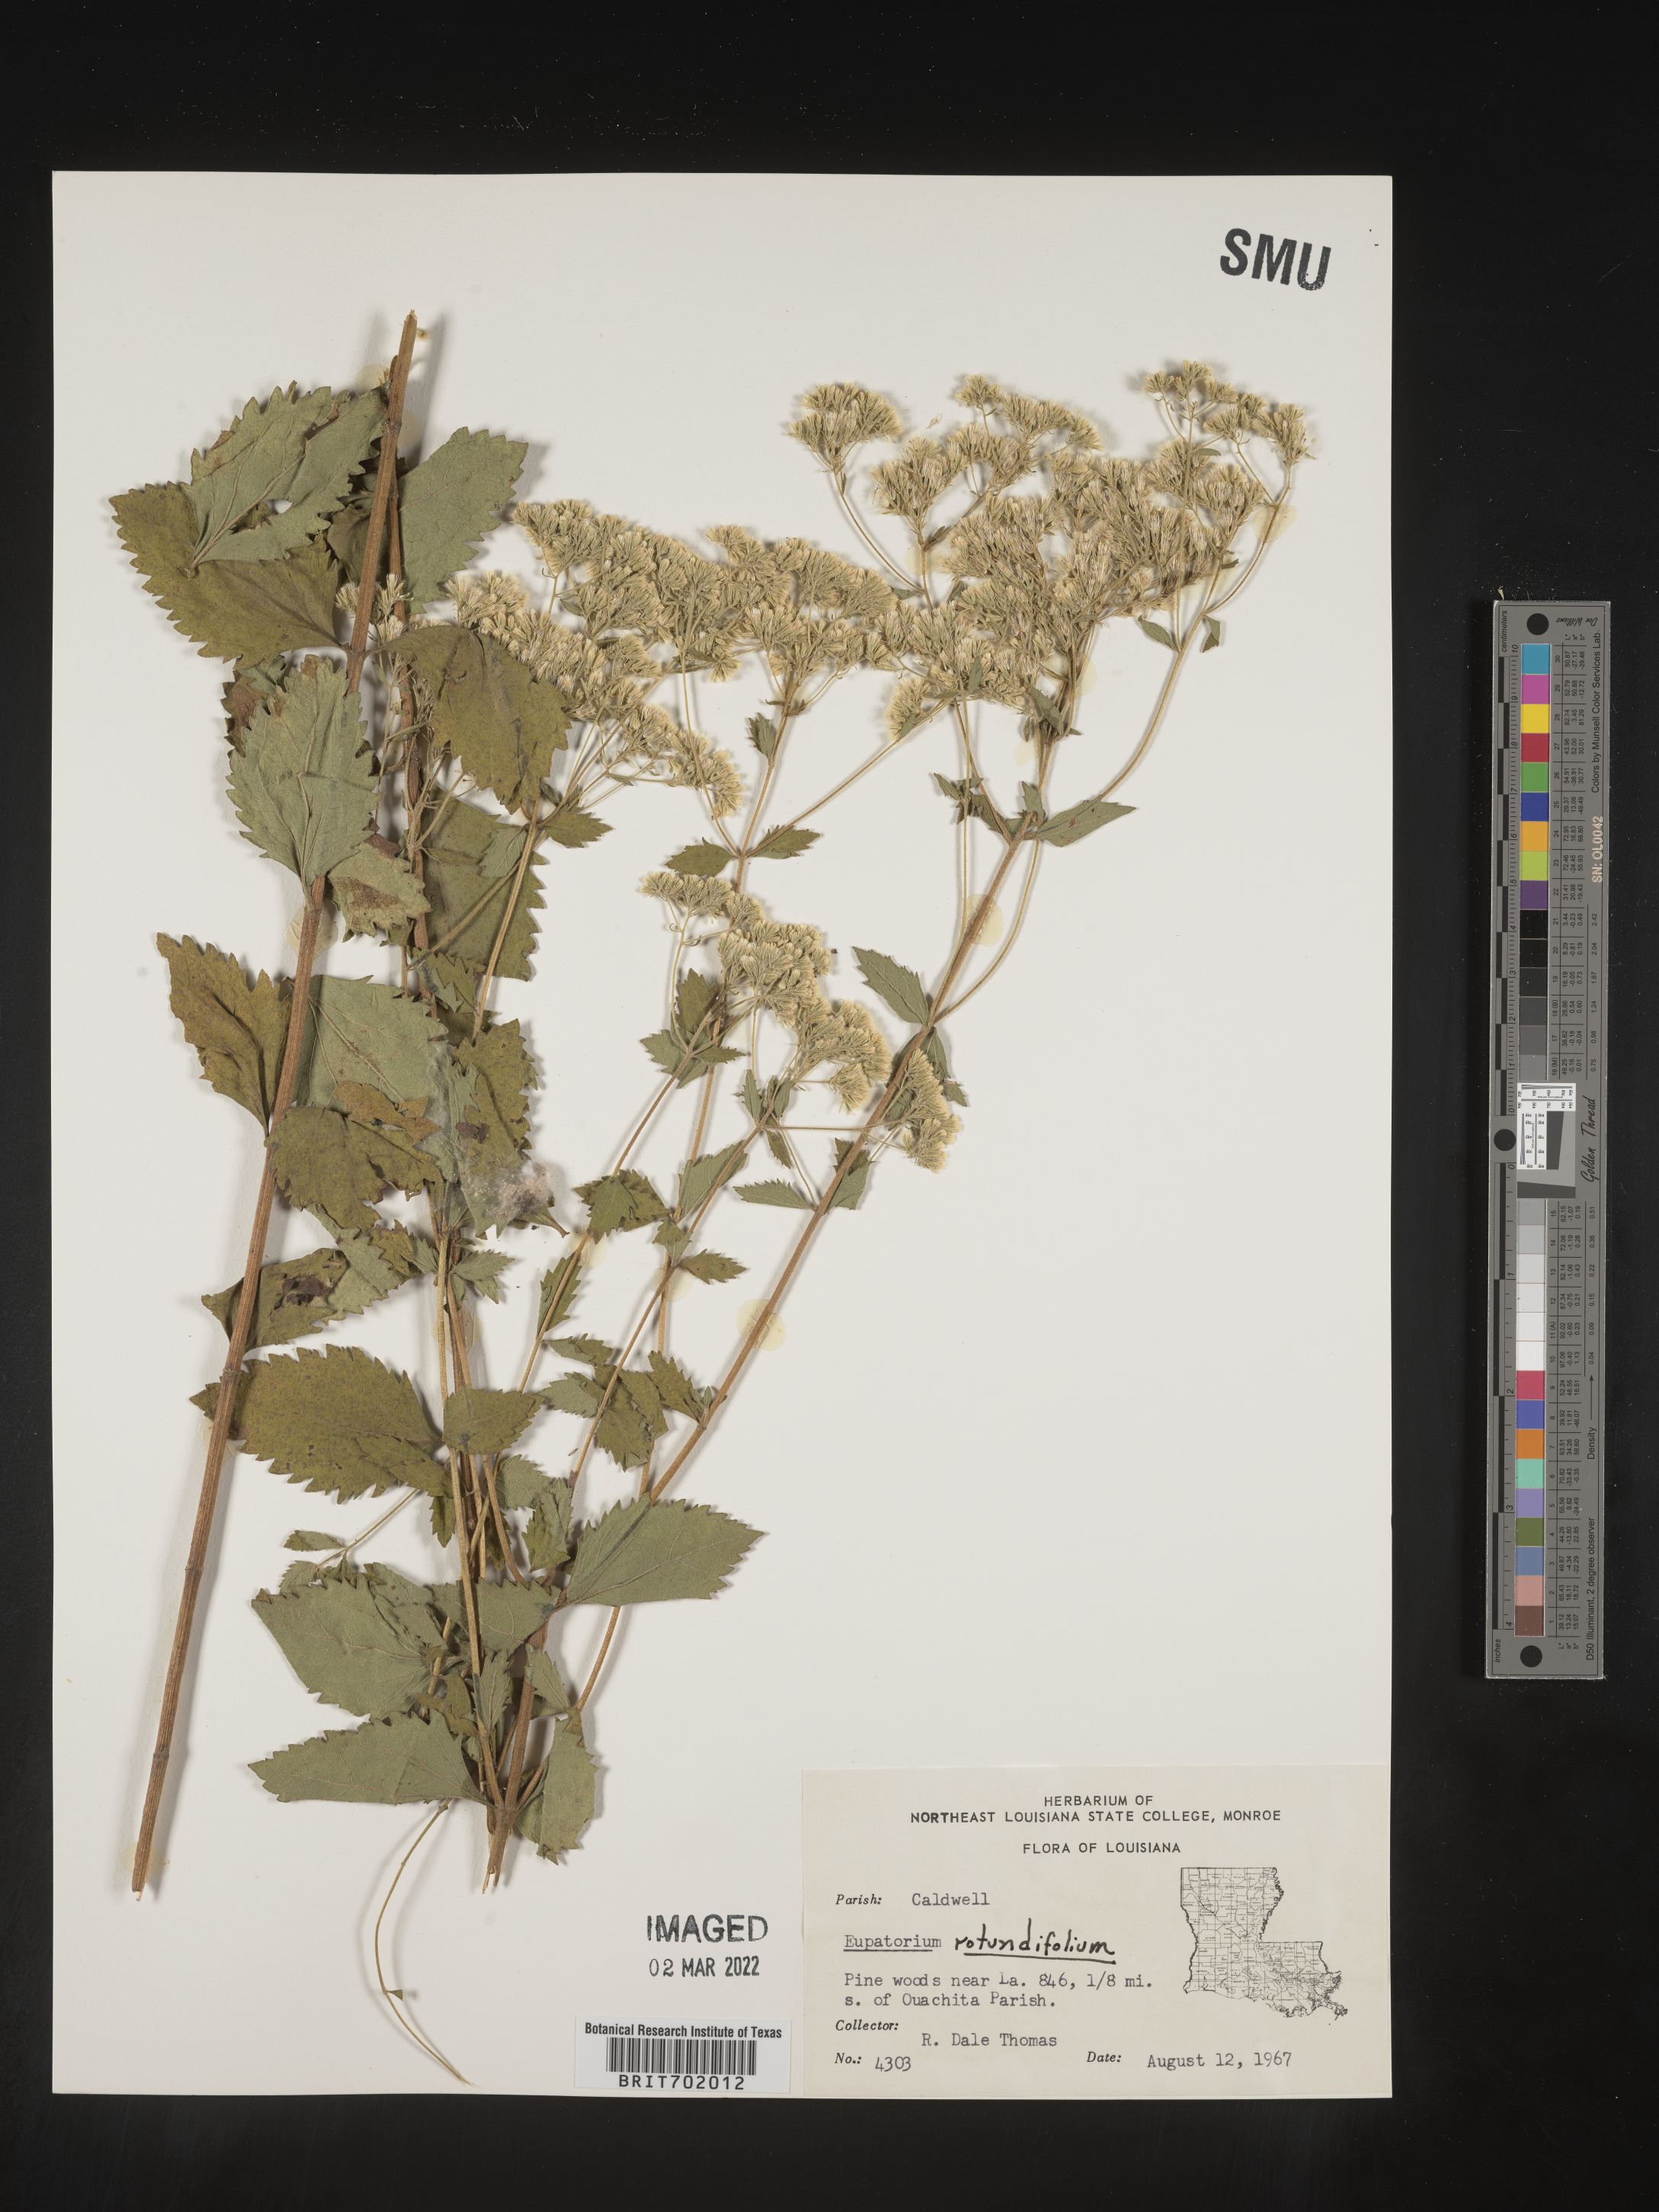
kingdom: Plantae
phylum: Tracheophyta
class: Magnoliopsida
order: Asterales
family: Asteraceae
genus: Eupatorium
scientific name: Eupatorium rotundifolium
